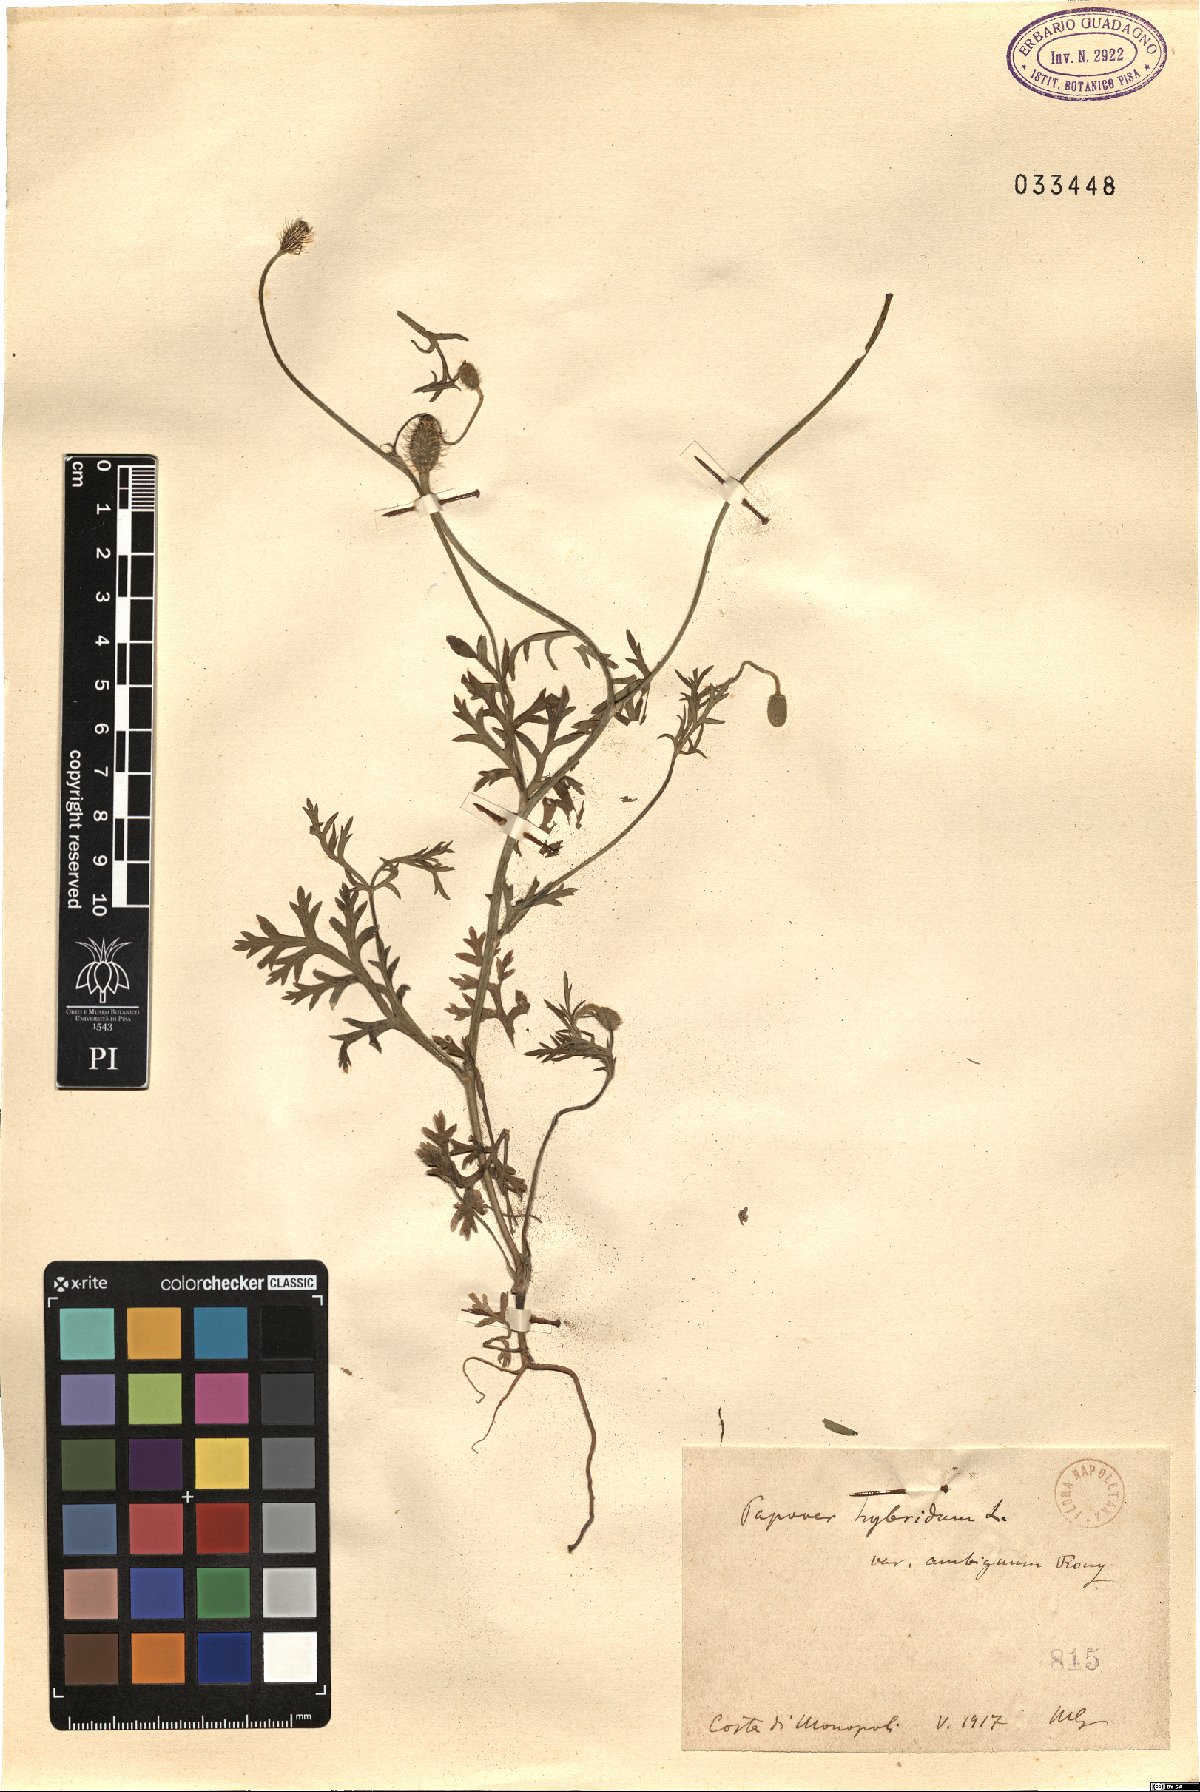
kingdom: Plantae
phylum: Tracheophyta
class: Magnoliopsida
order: Ranunculales
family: Papaveraceae
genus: Roemeria
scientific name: Roemeria hispida
